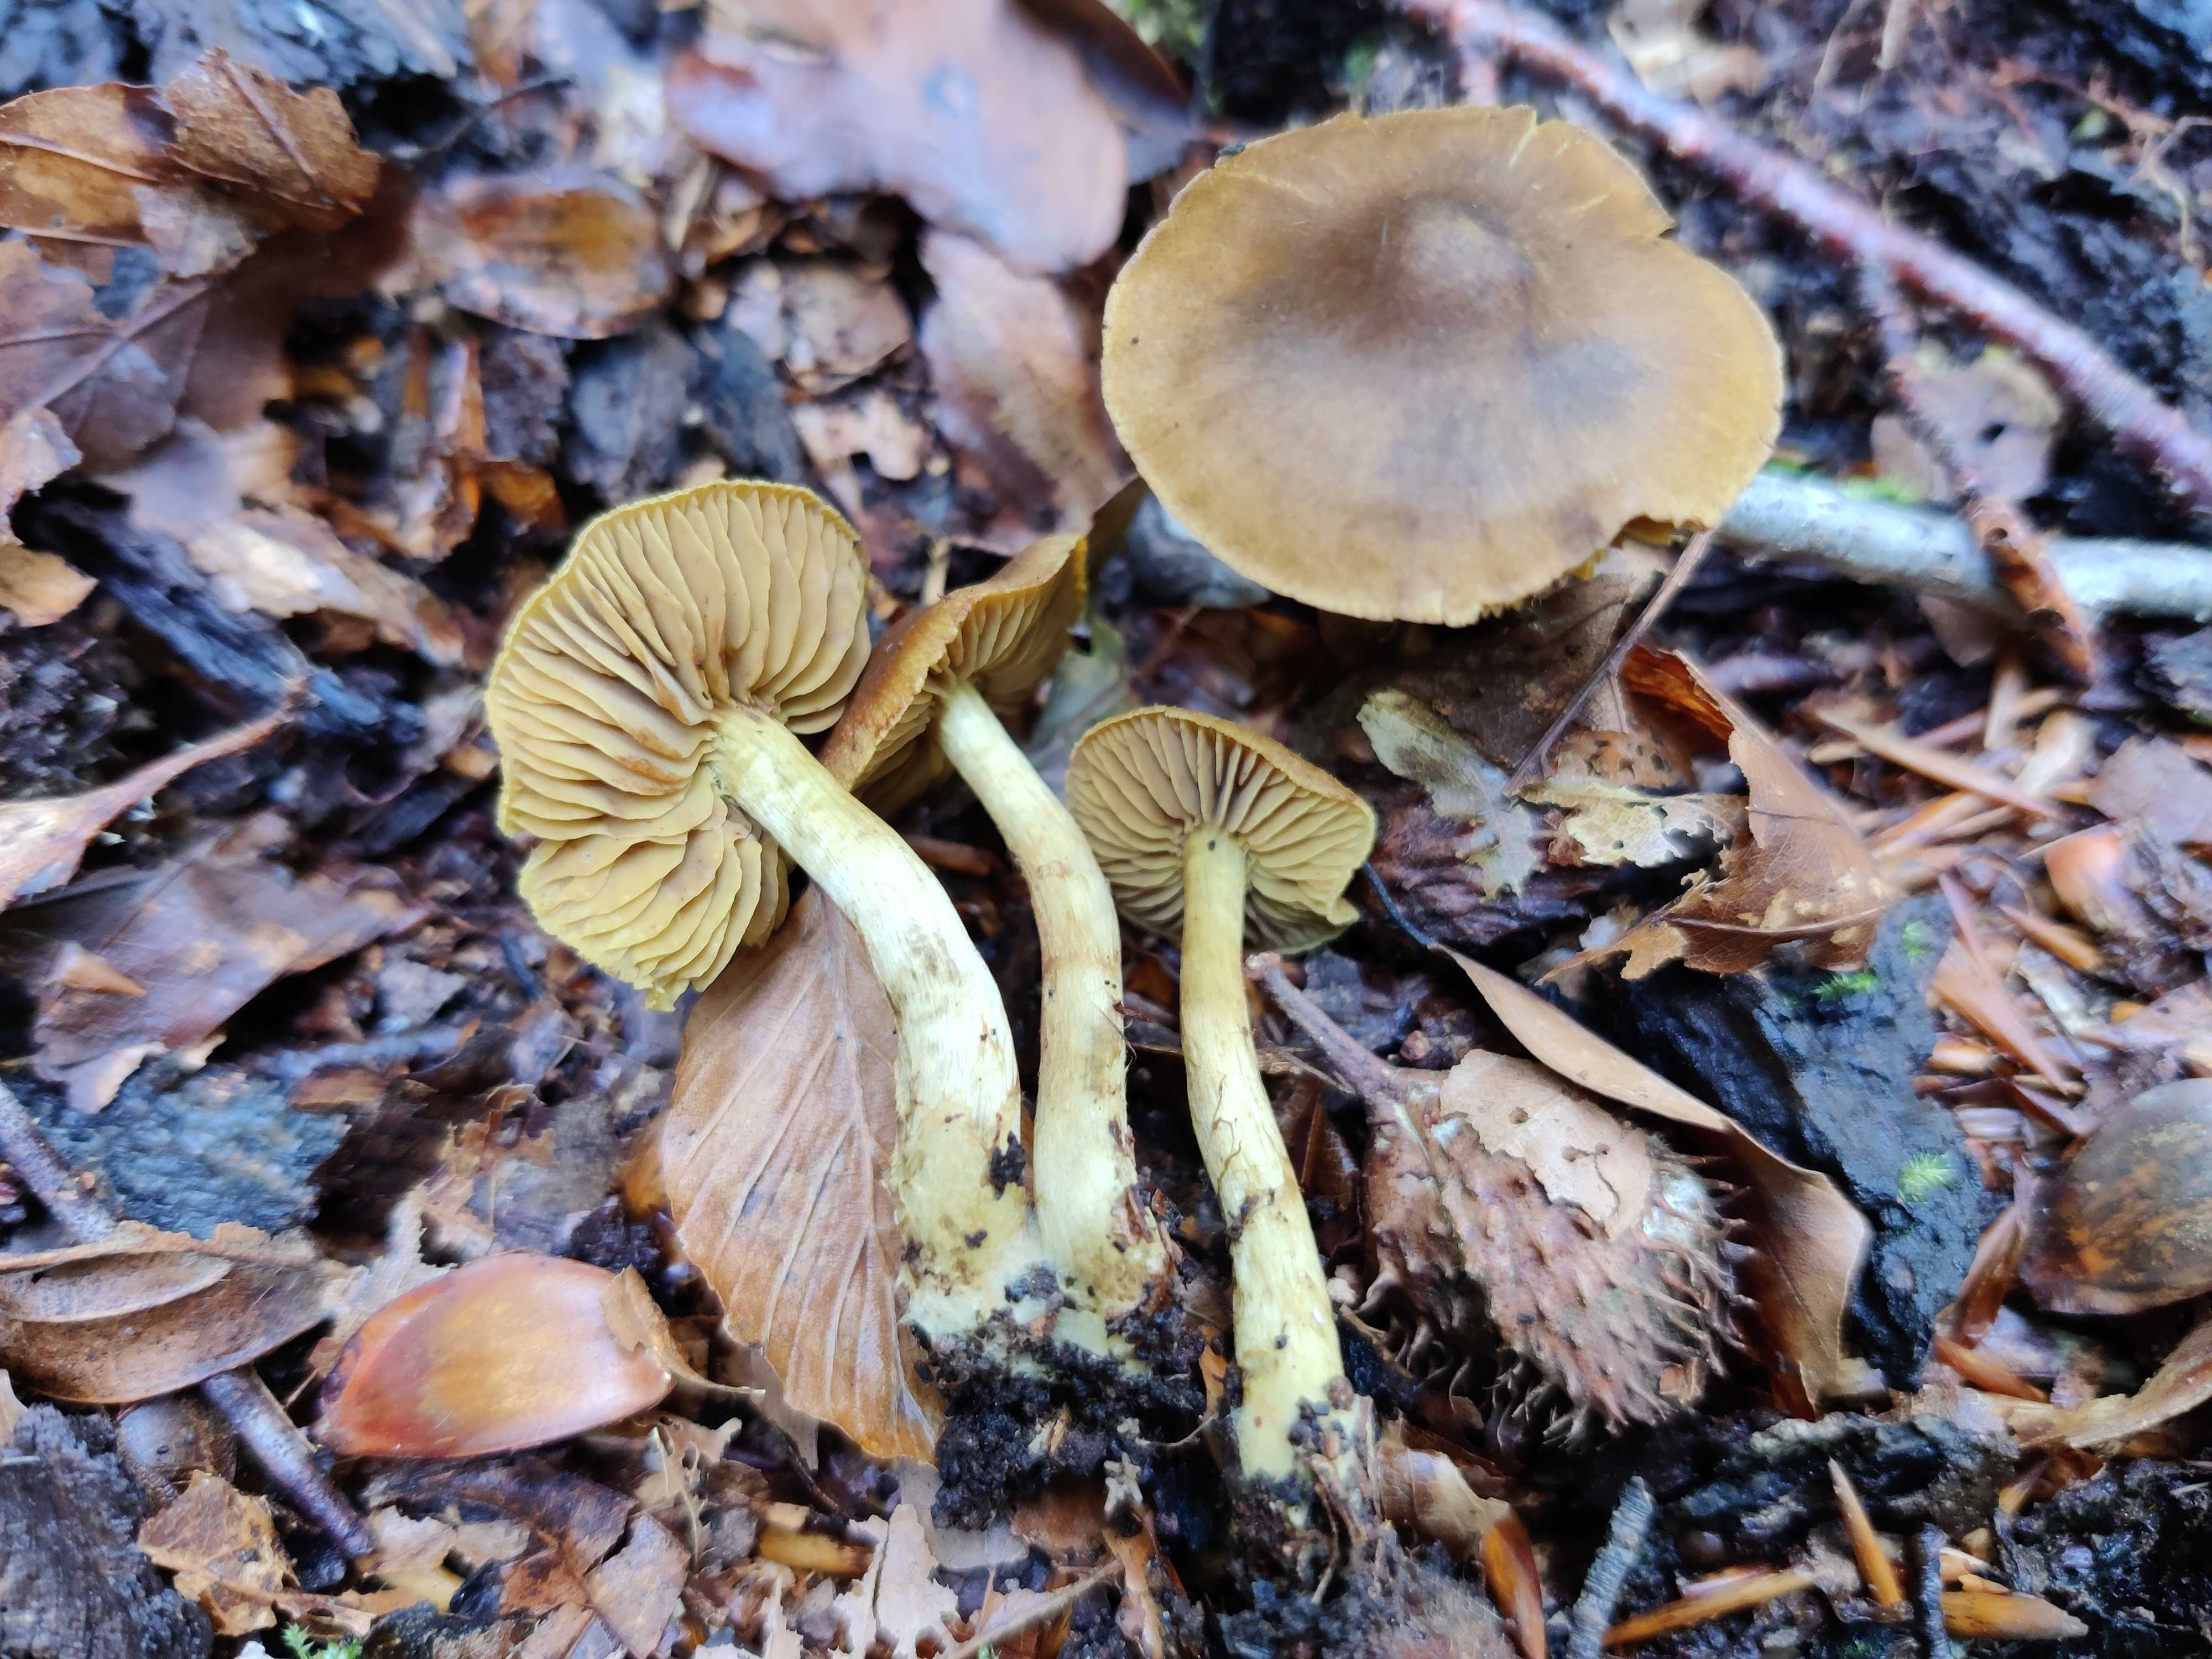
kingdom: Fungi
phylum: Basidiomycota
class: Agaricomycetes
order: Agaricales
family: Cortinariaceae
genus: Cortinarius
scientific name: Cortinarius olivaceofuscus
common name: olivenbrun slørhat
